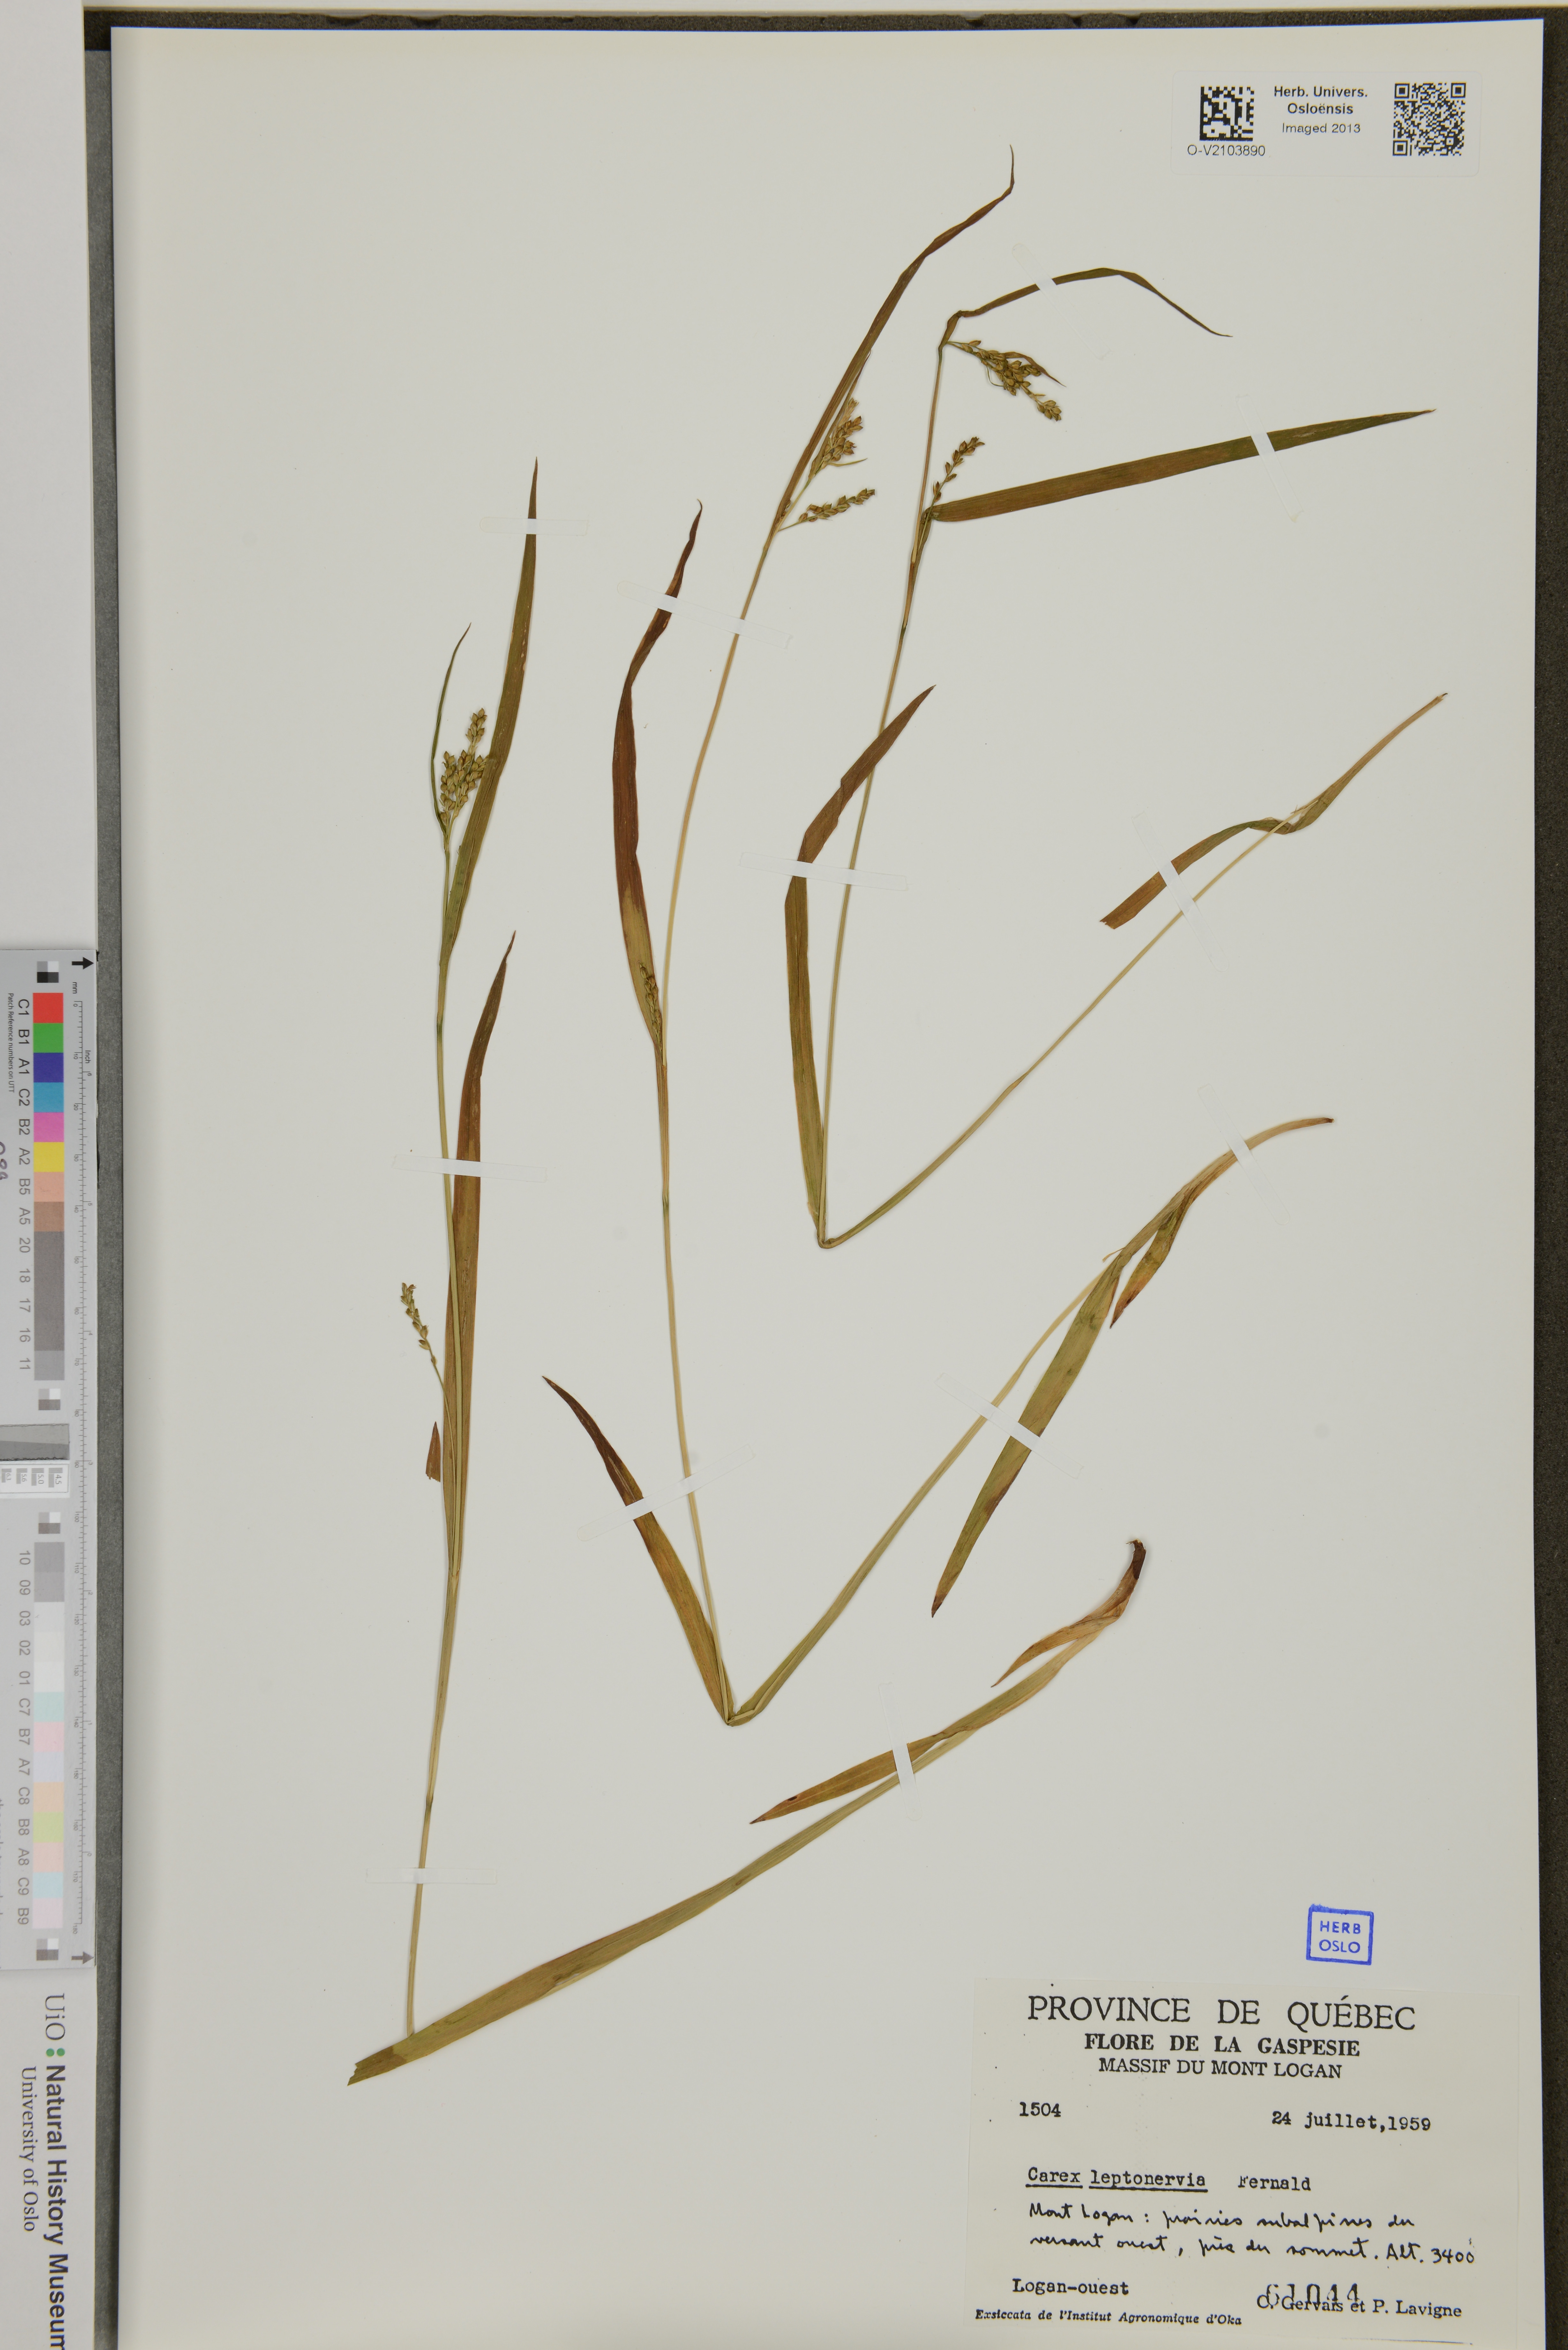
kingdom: Plantae
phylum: Tracheophyta
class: Liliopsida
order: Poales
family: Cyperaceae
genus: Carex
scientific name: Carex leptonervia
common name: Few-nerved wood sedge
